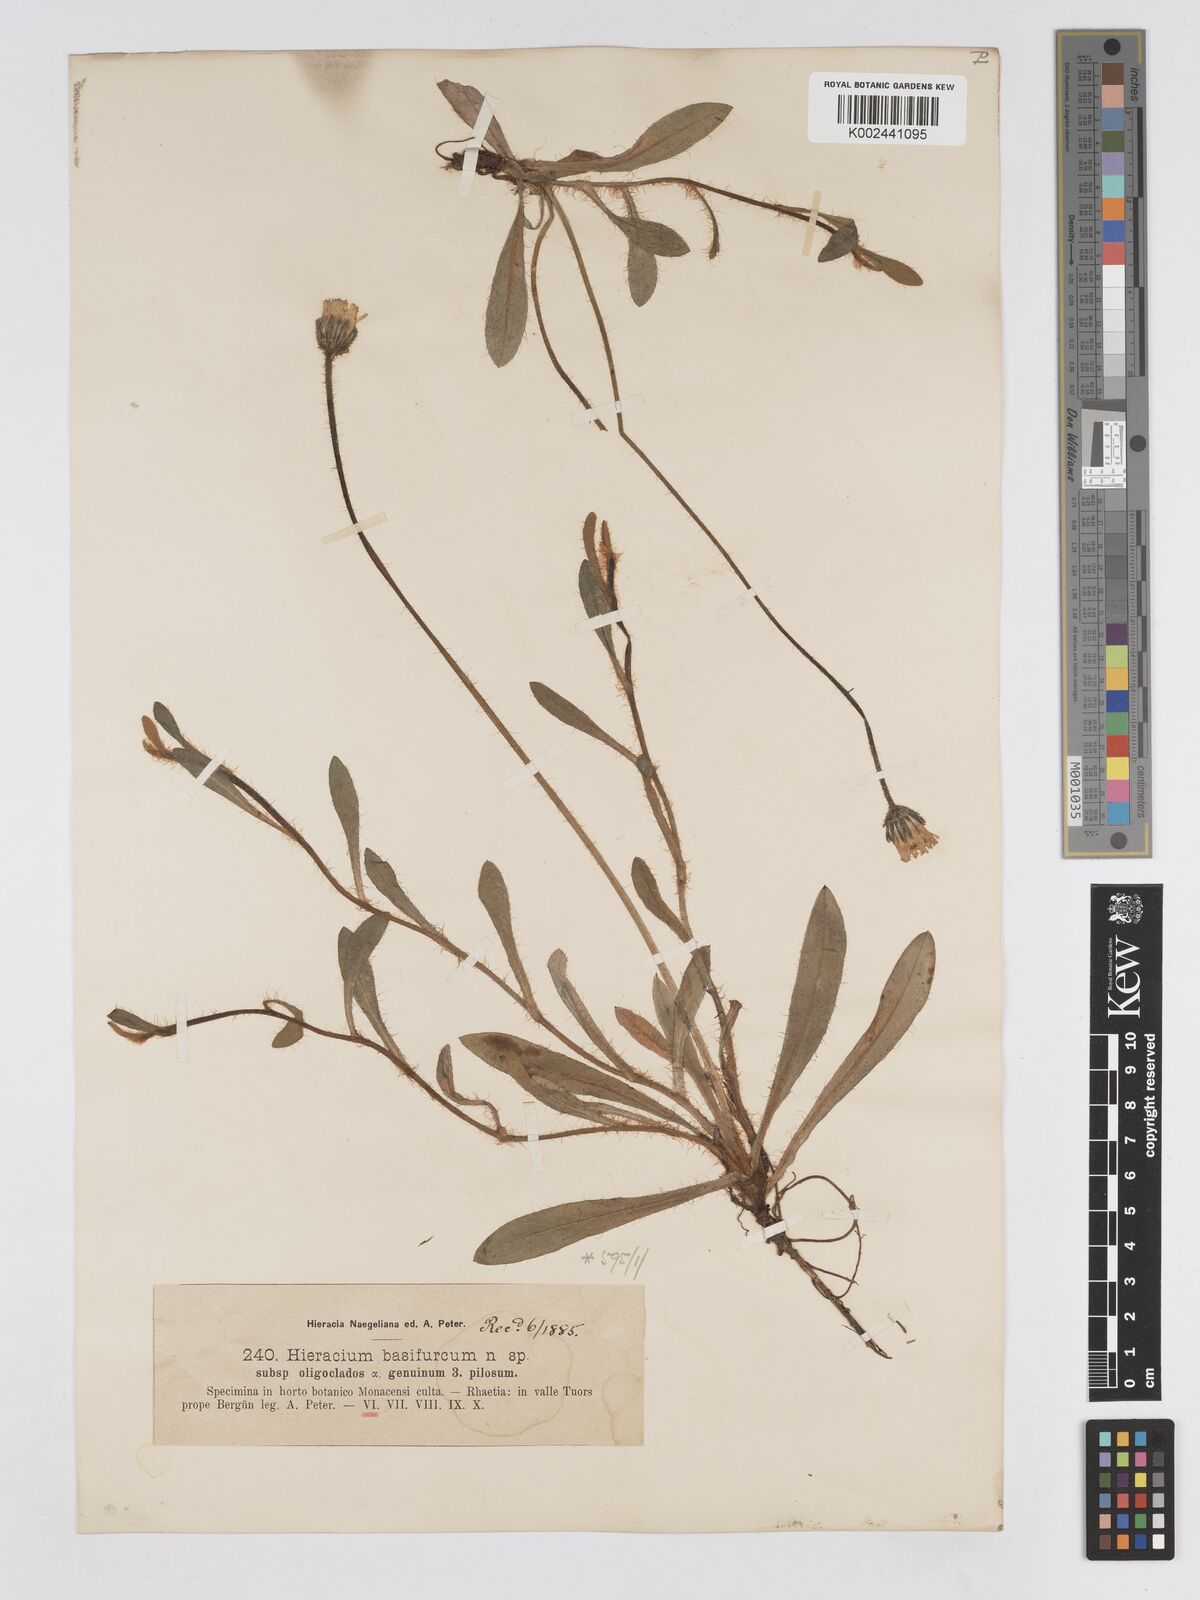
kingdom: Plantae
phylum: Tracheophyta
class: Magnoliopsida
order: Asterales
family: Asteraceae
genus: Pilosella
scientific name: Pilosella basifurca
